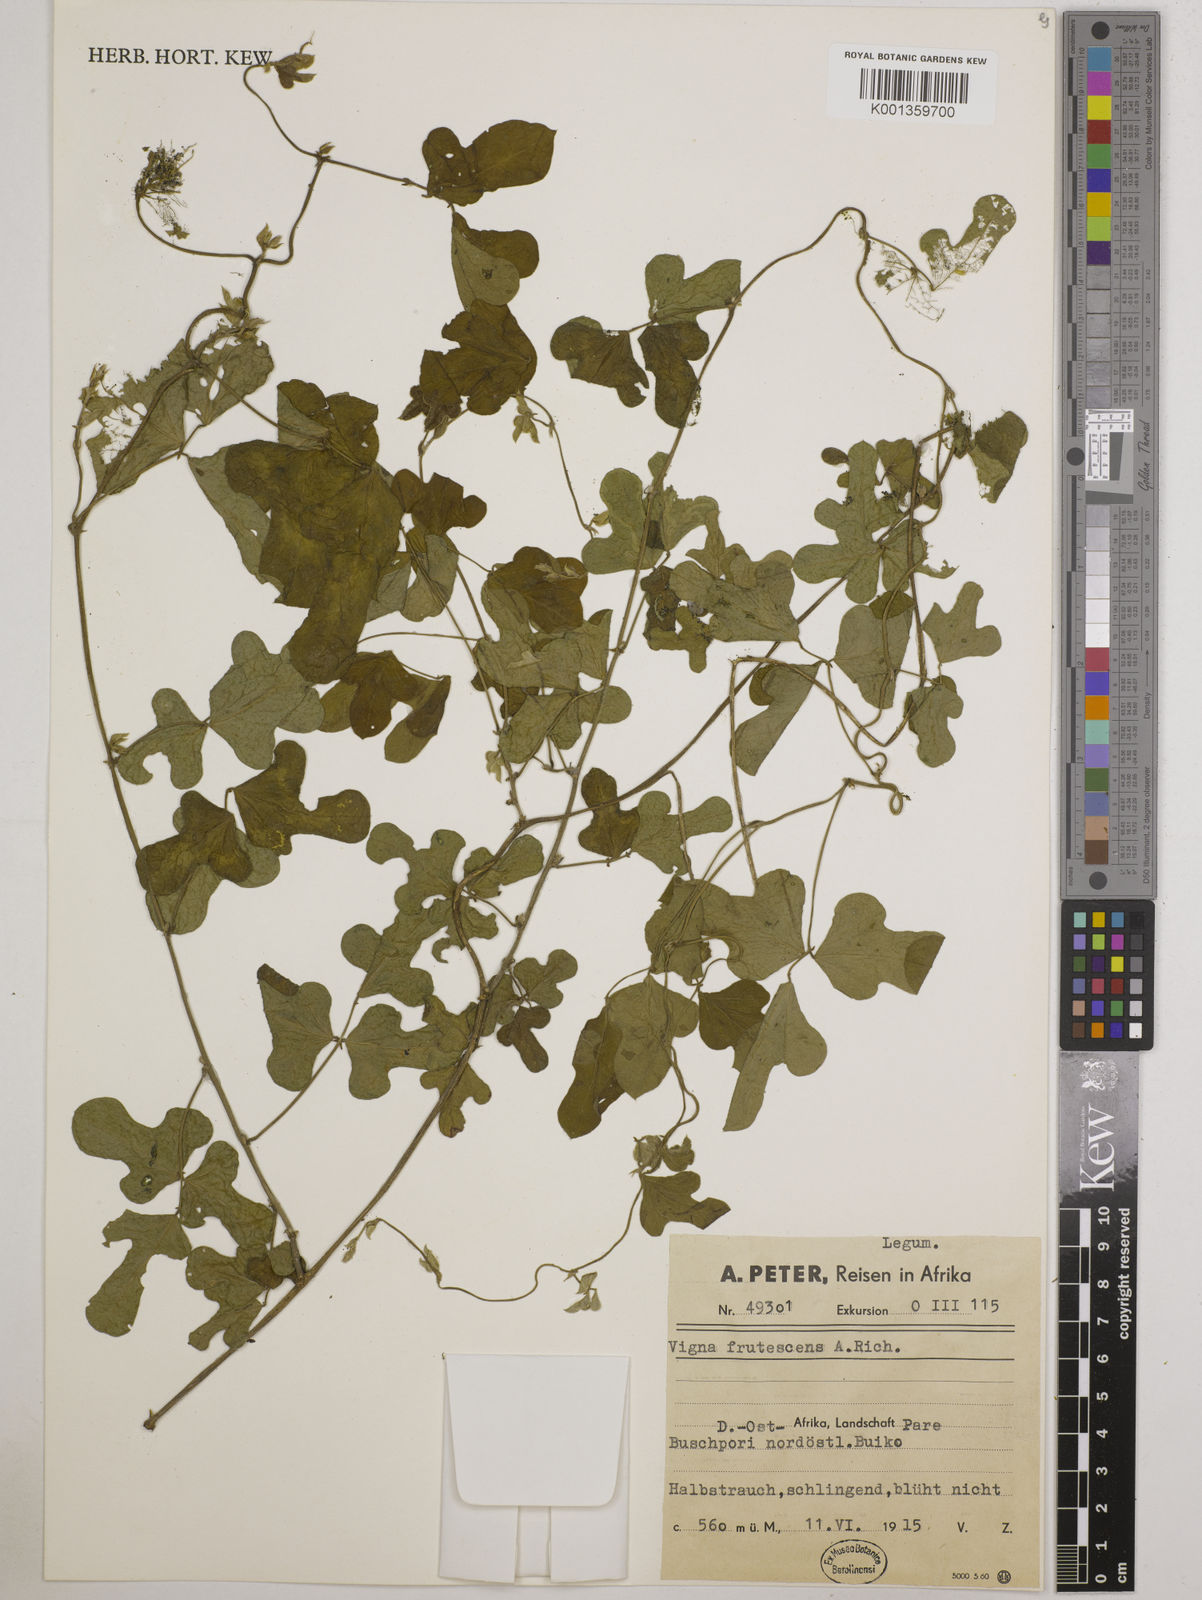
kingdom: Plantae
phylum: Tracheophyta
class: Magnoliopsida
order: Fabales
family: Fabaceae
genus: Vigna
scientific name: Vigna frutescens
